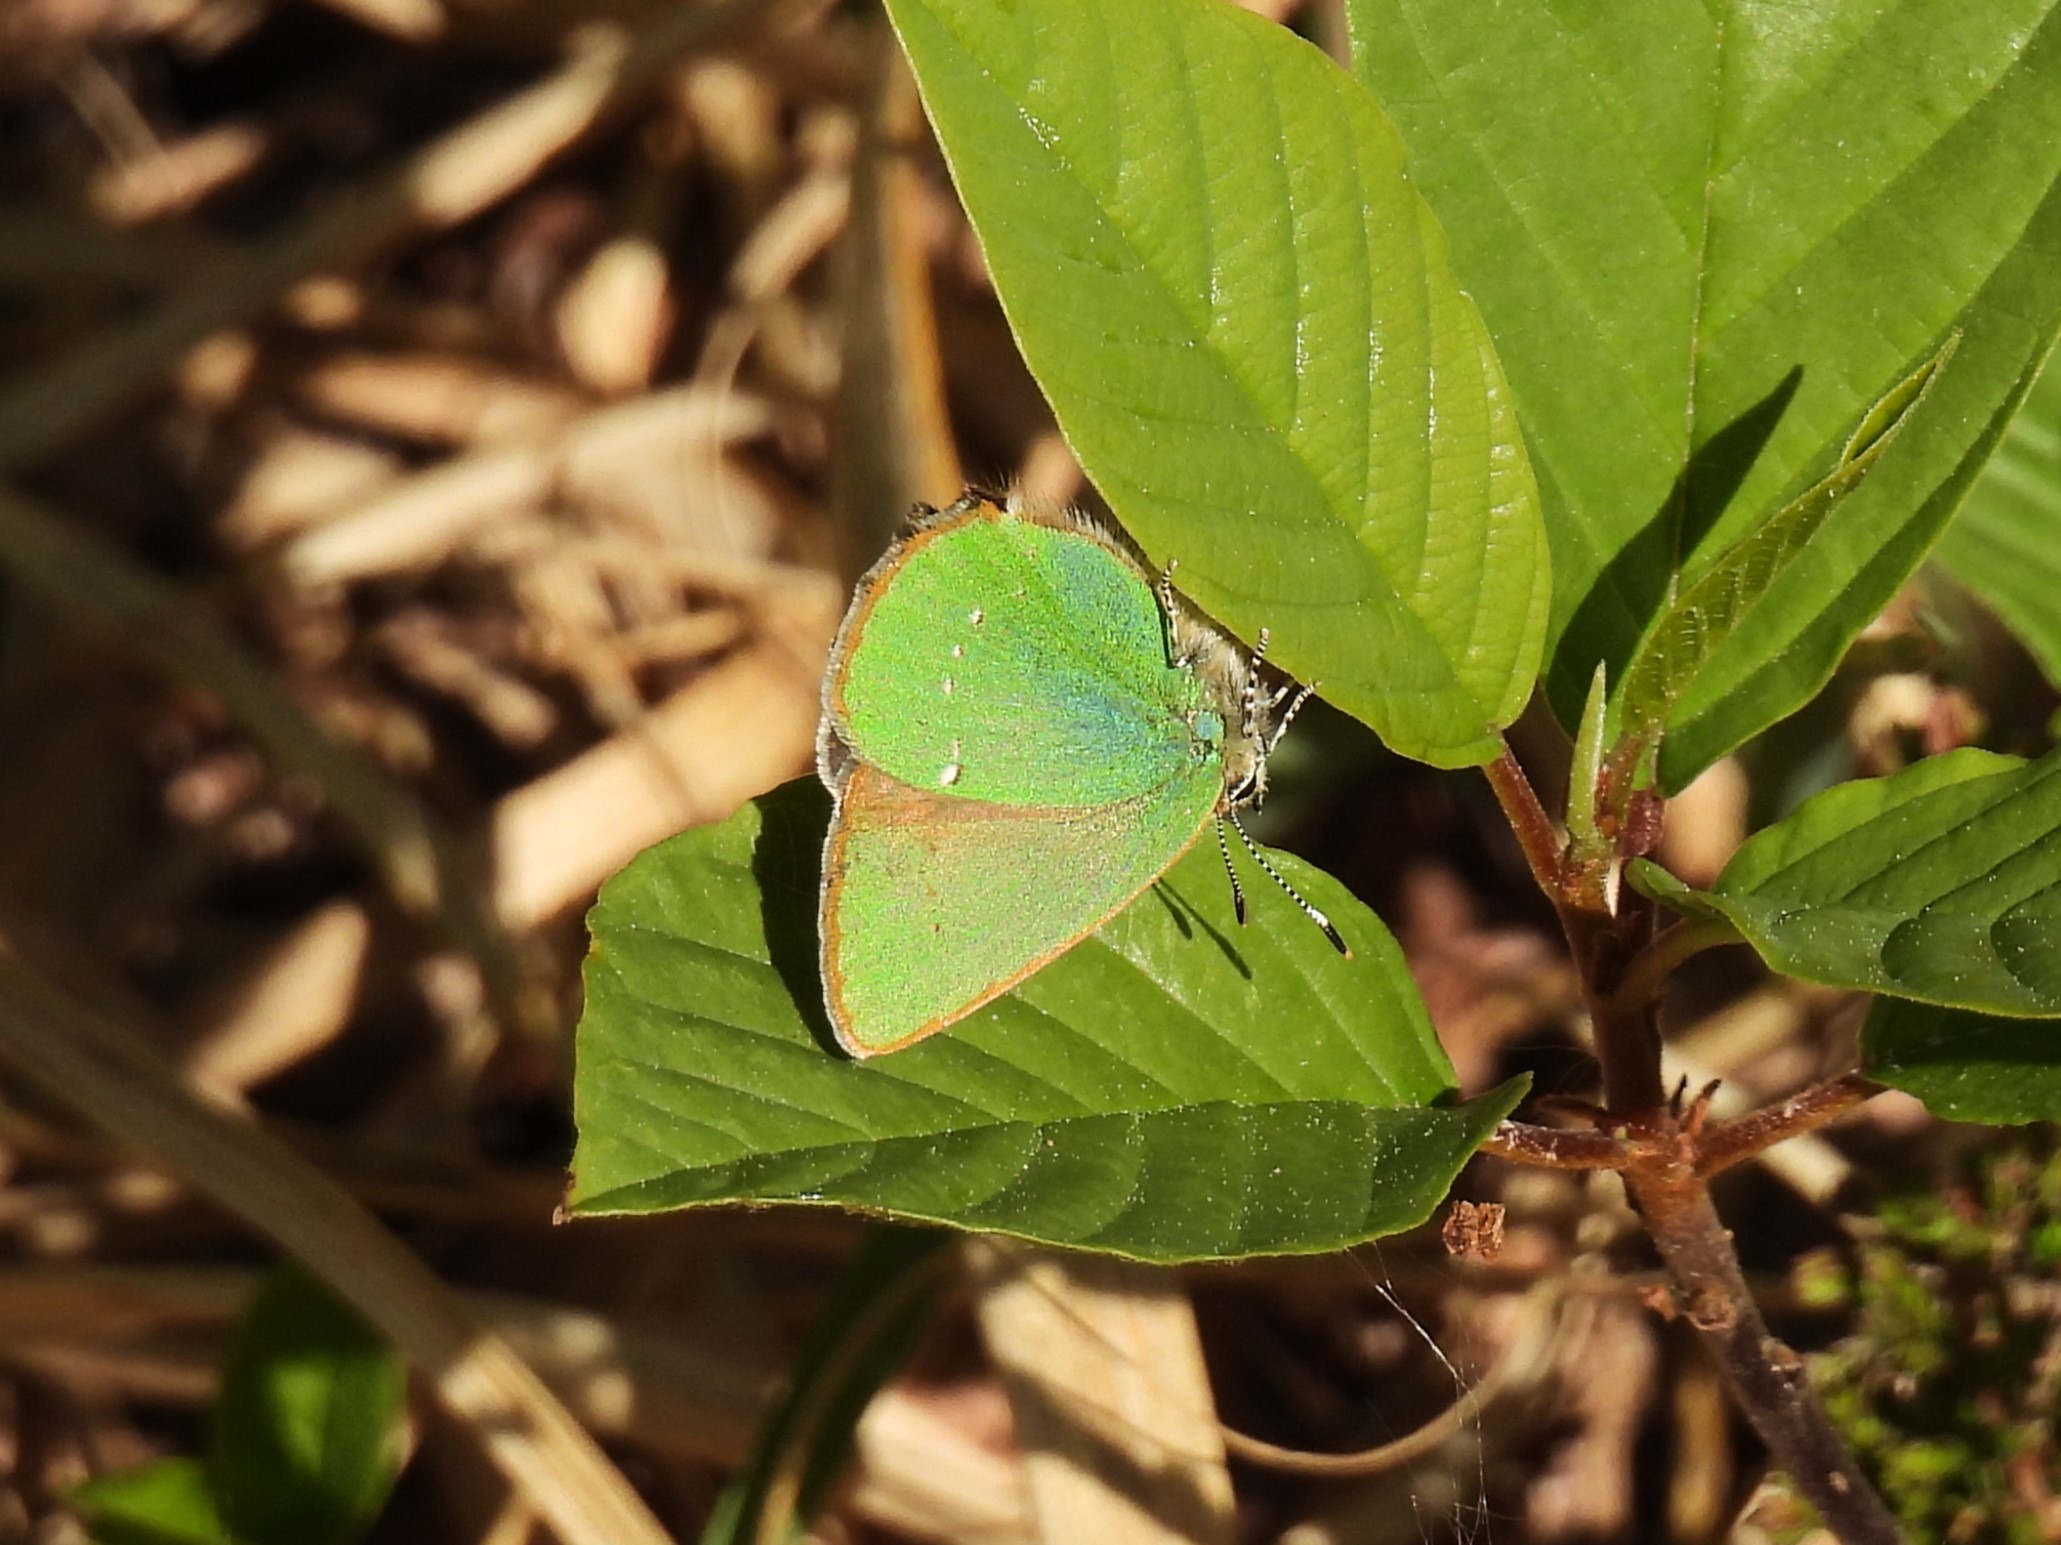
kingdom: Animalia
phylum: Arthropoda
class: Insecta
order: Lepidoptera
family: Lycaenidae
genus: Callophrys
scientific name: Callophrys rubi
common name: Grøn busksommerfugl
